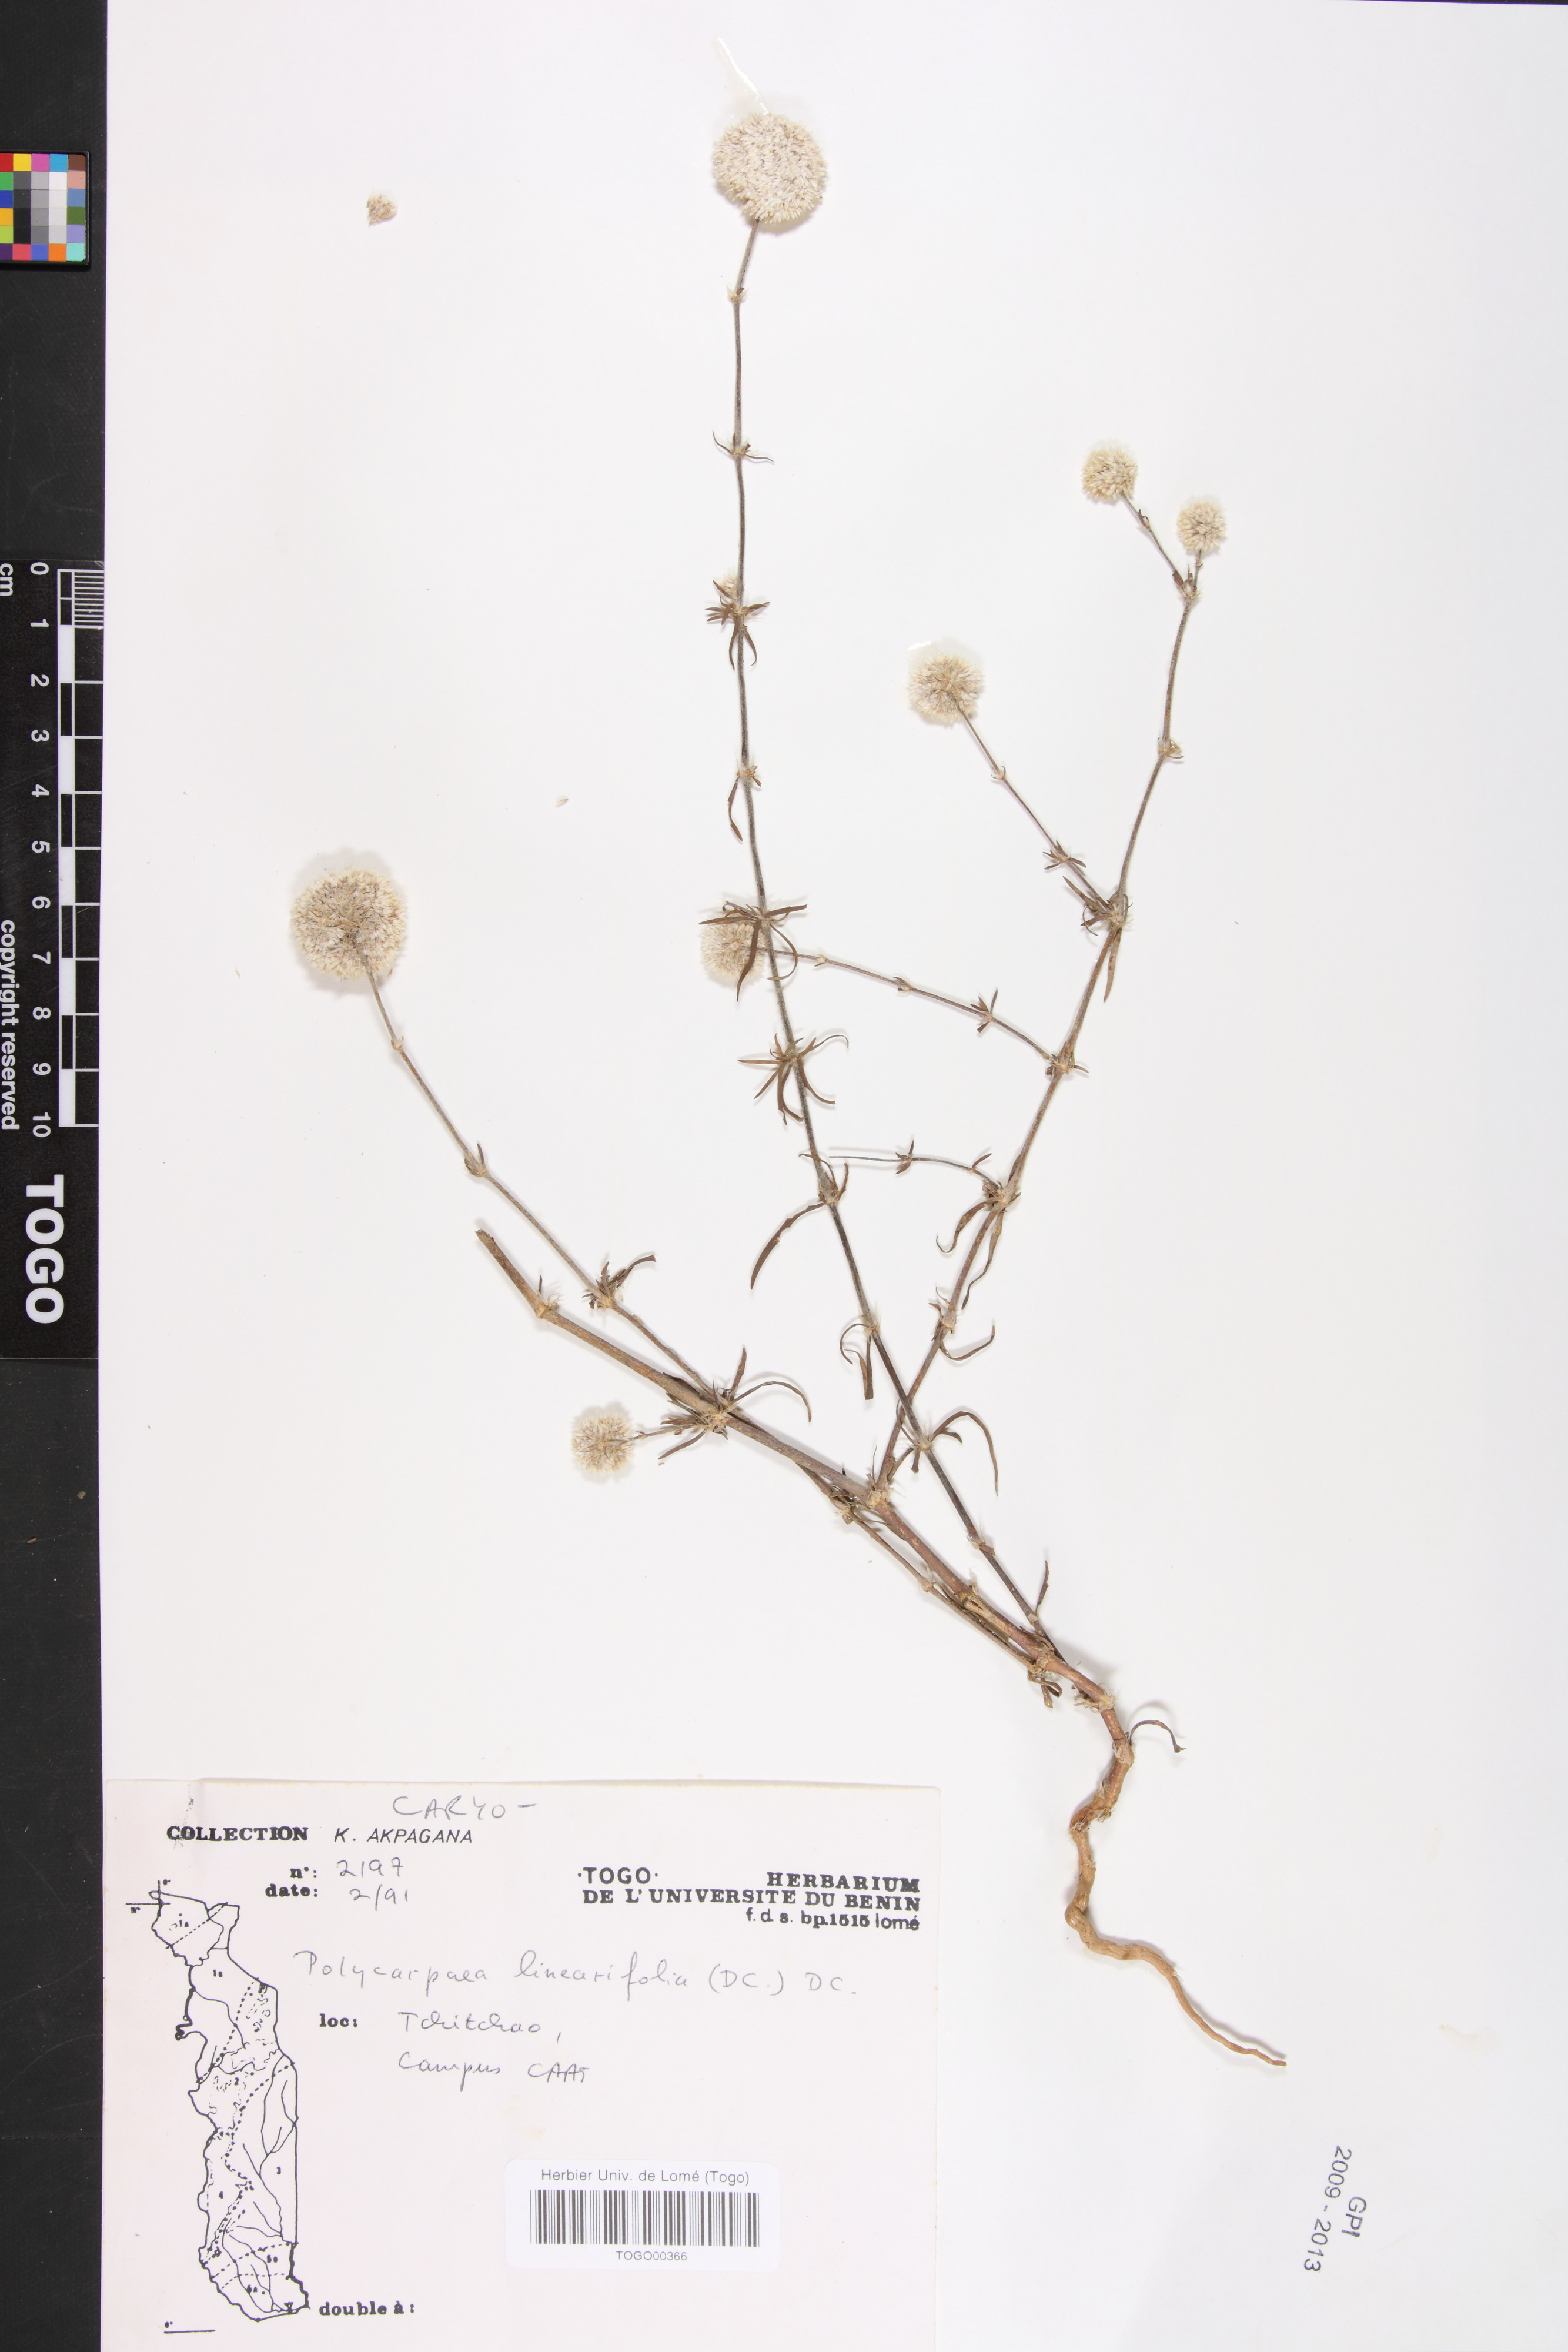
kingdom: Plantae
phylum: Tracheophyta
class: Magnoliopsida
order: Caryophyllales
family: Caryophyllaceae
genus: Polycarpaea
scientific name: Polycarpaea linearifolia
